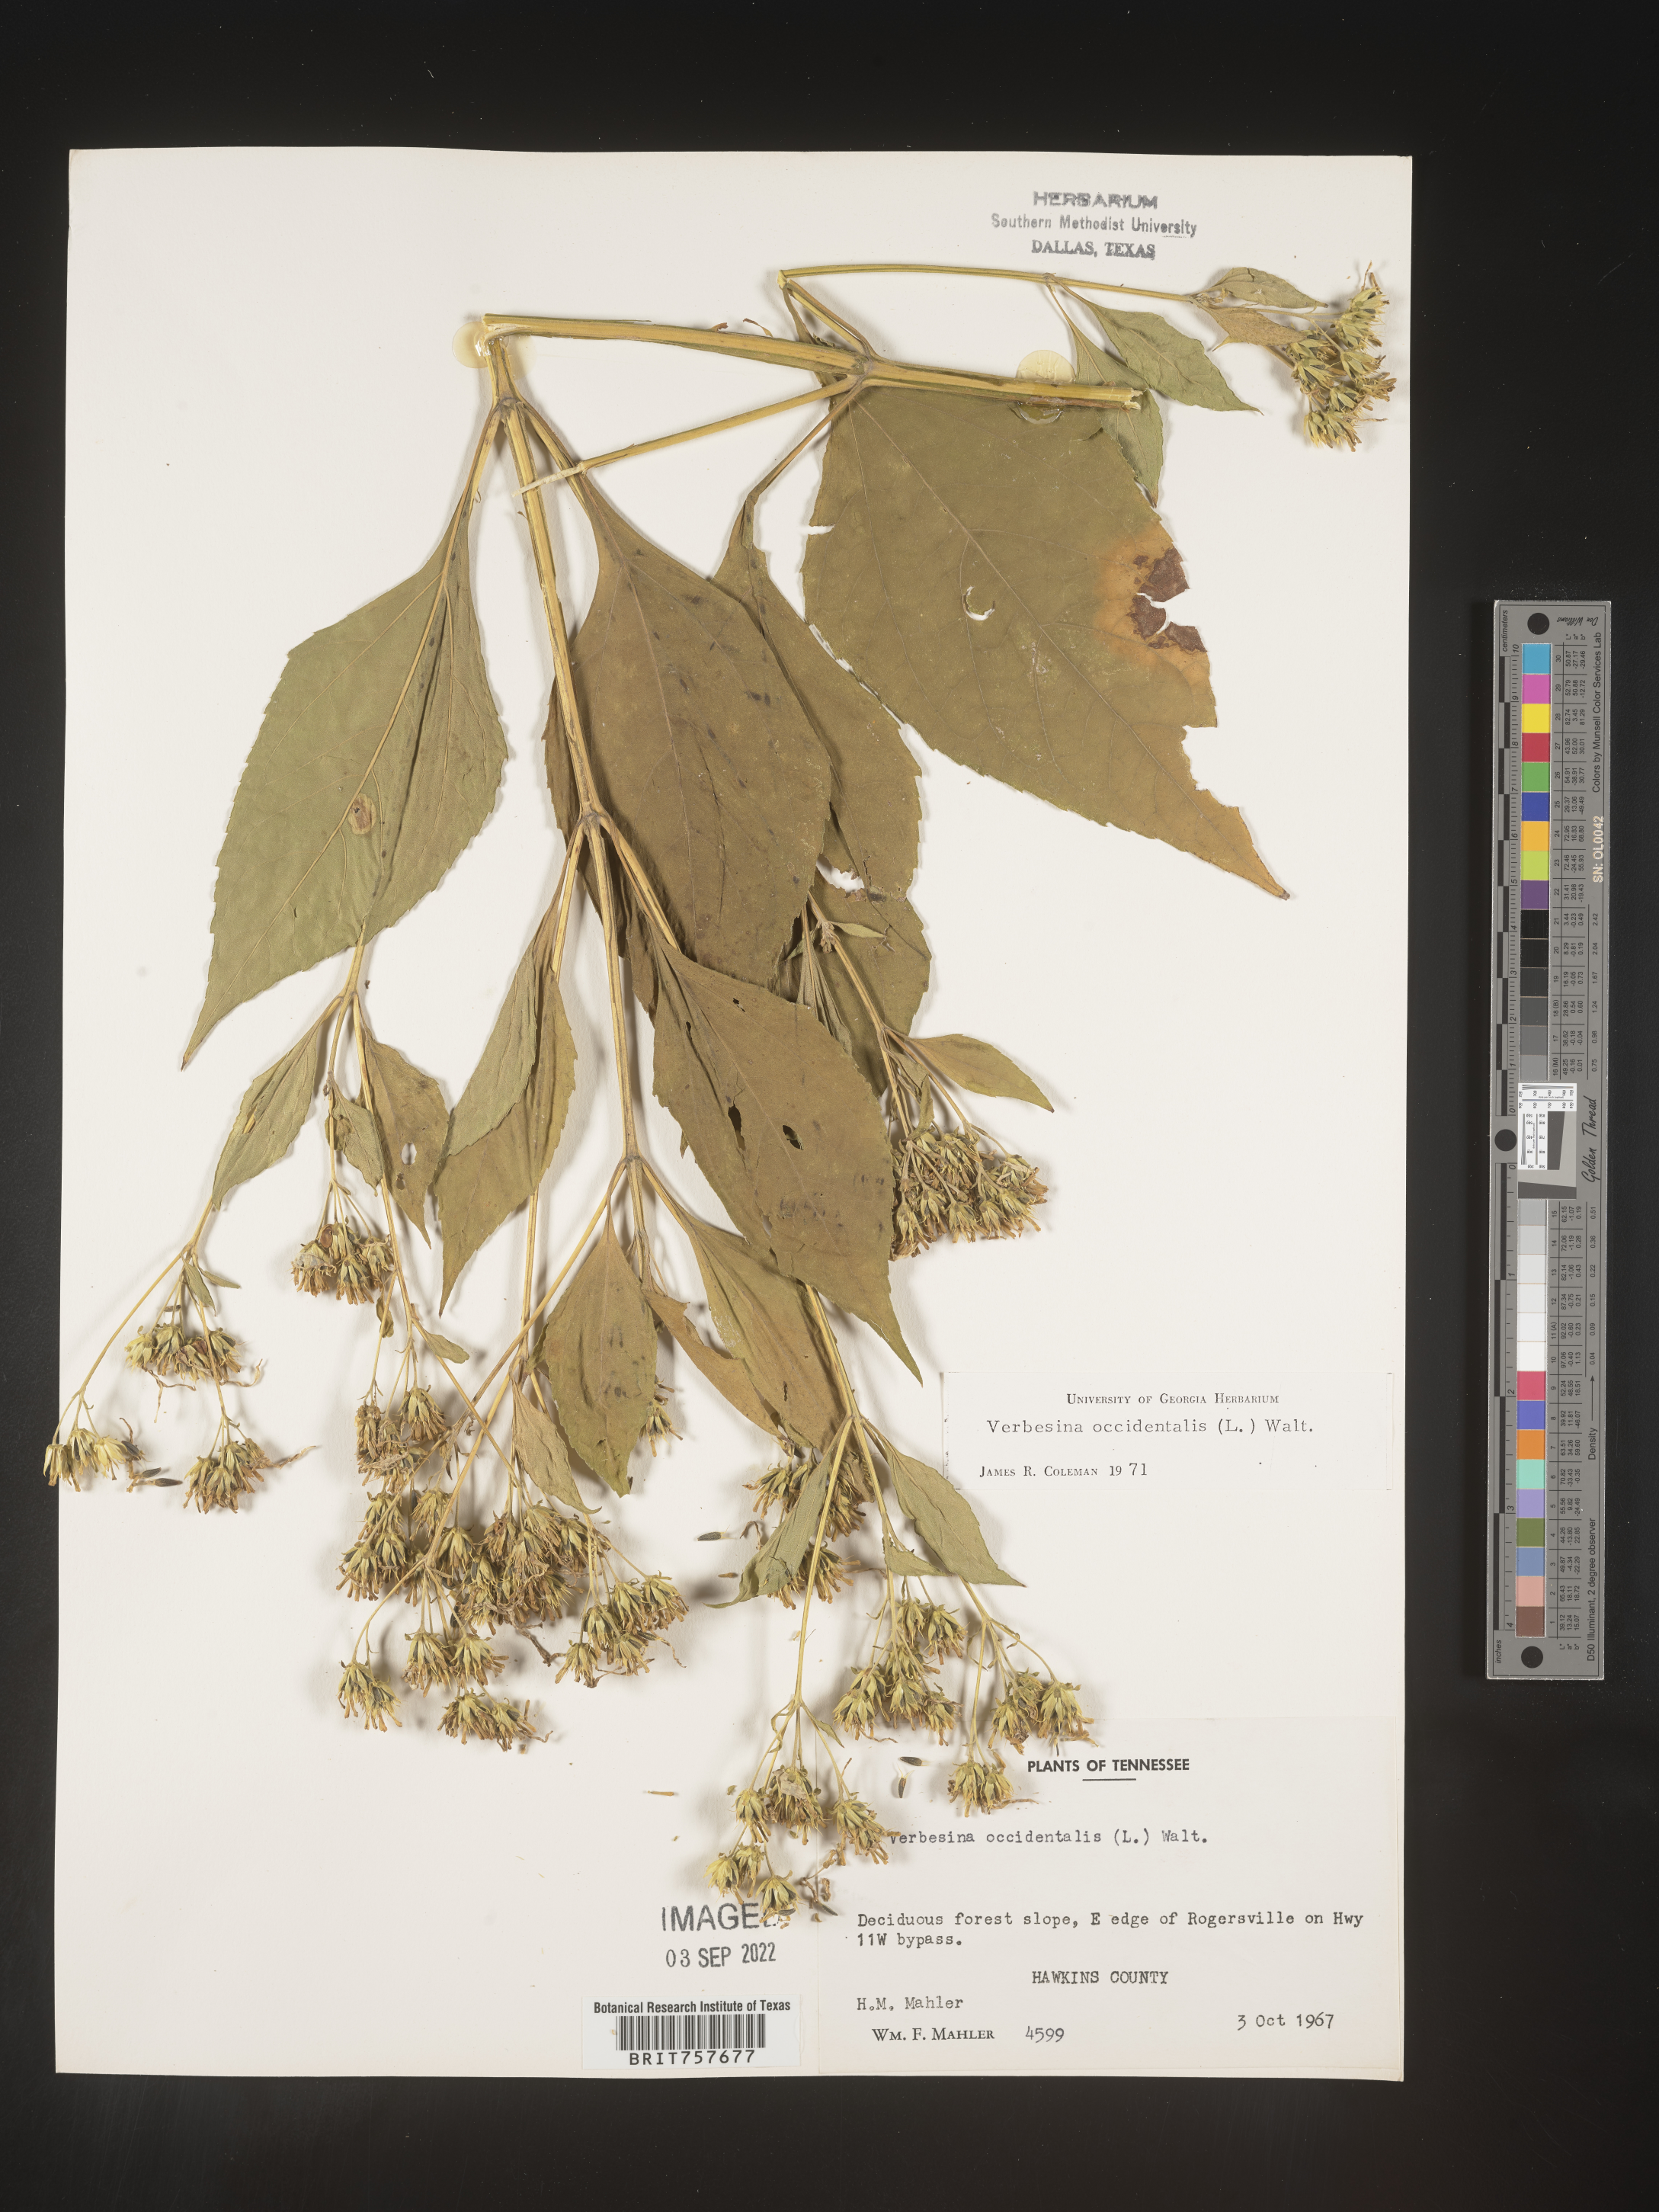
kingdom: Plantae
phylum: Tracheophyta
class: Magnoliopsida
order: Asterales
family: Asteraceae
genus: Verbesina
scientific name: Verbesina occidentalis
